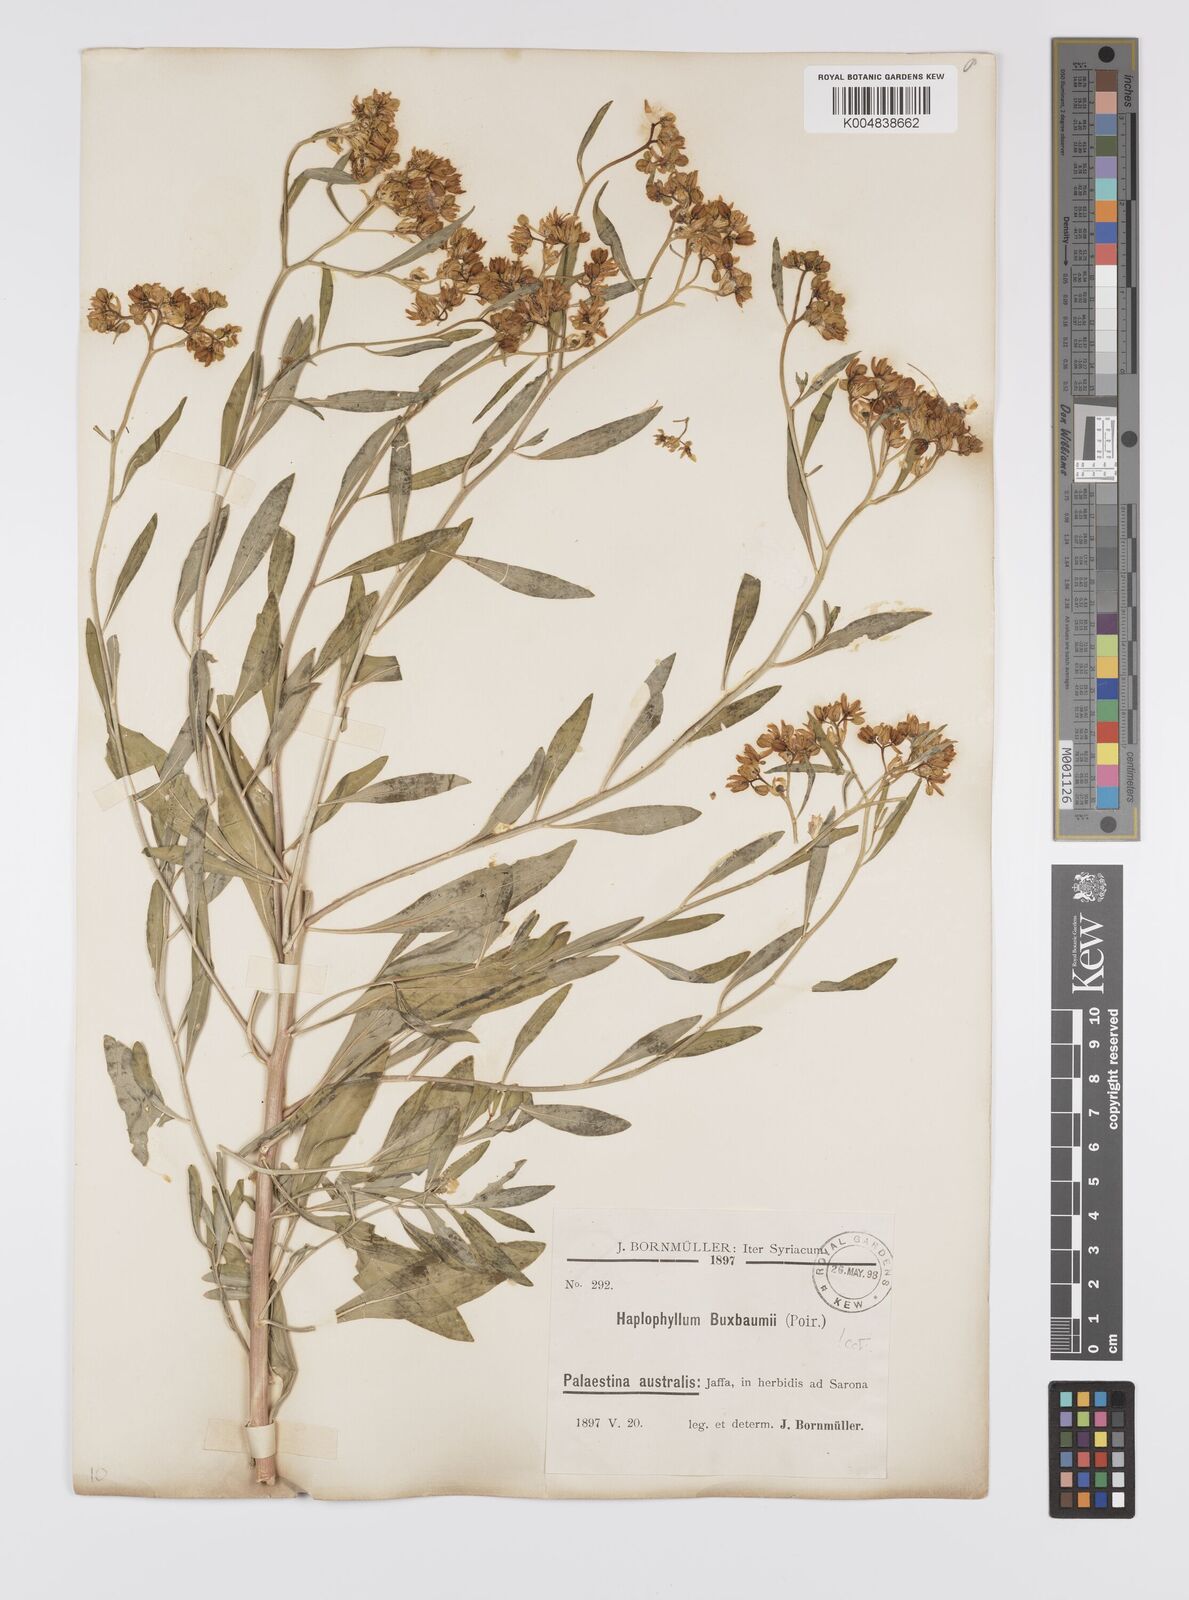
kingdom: Plantae
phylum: Tracheophyta
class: Magnoliopsida
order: Sapindales
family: Rutaceae
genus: Haplophyllum
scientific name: Haplophyllum
